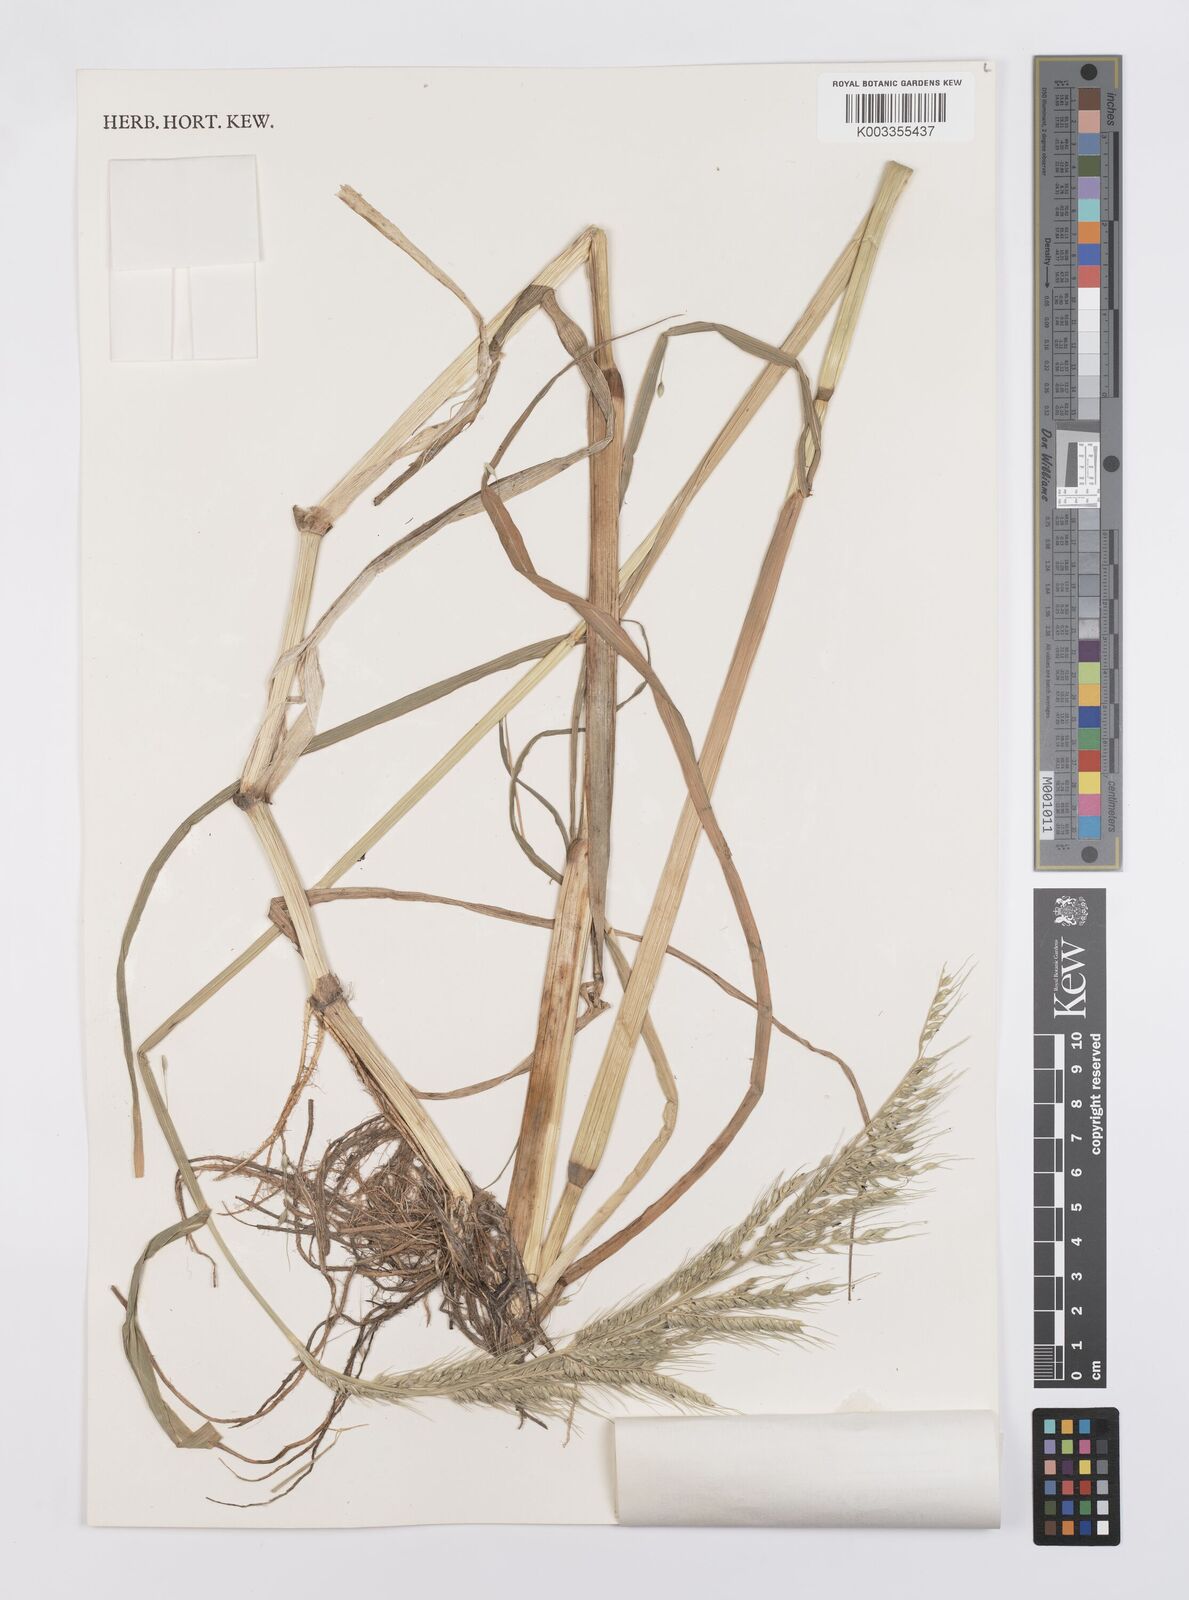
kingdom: Plantae
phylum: Tracheophyta
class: Liliopsida
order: Poales
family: Poaceae
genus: Echinochloa
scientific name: Echinochloa stagnina
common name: Burgu grass
